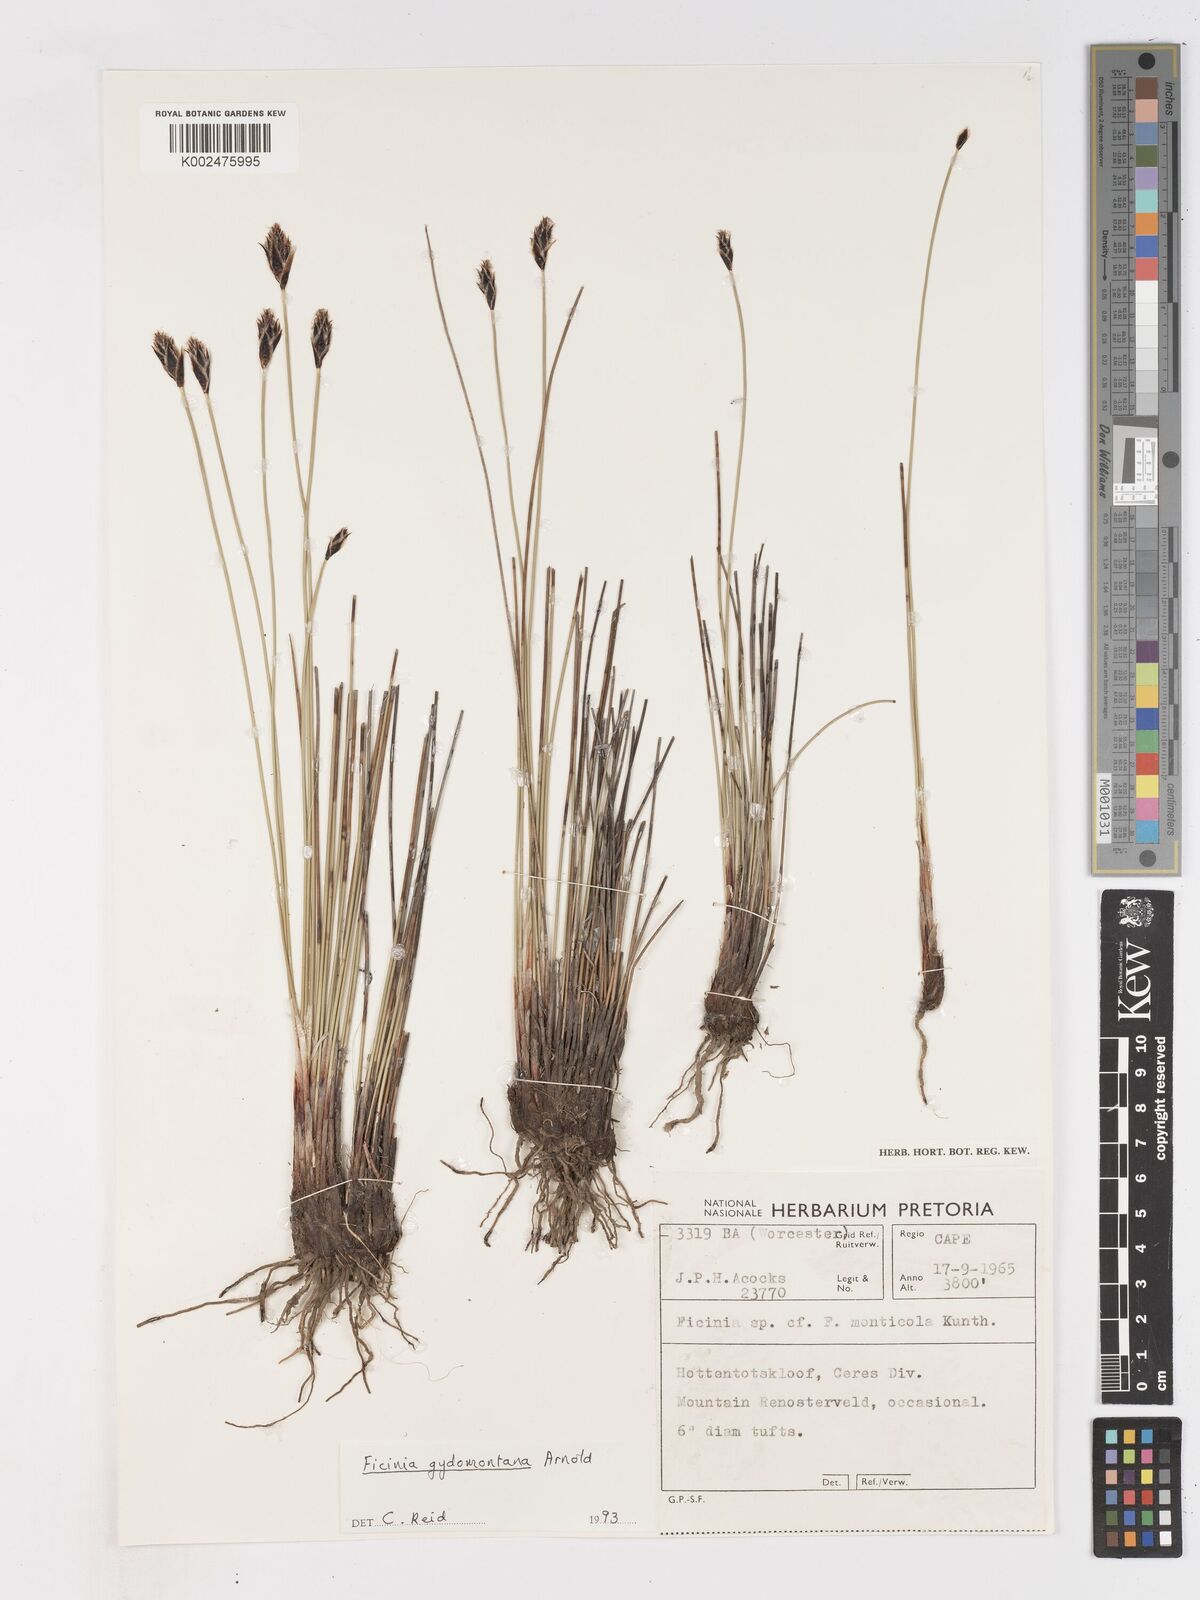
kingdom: Plantae
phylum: Tracheophyta
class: Liliopsida
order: Poales
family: Cyperaceae
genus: Ficinia
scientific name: Ficinia gydomontana
